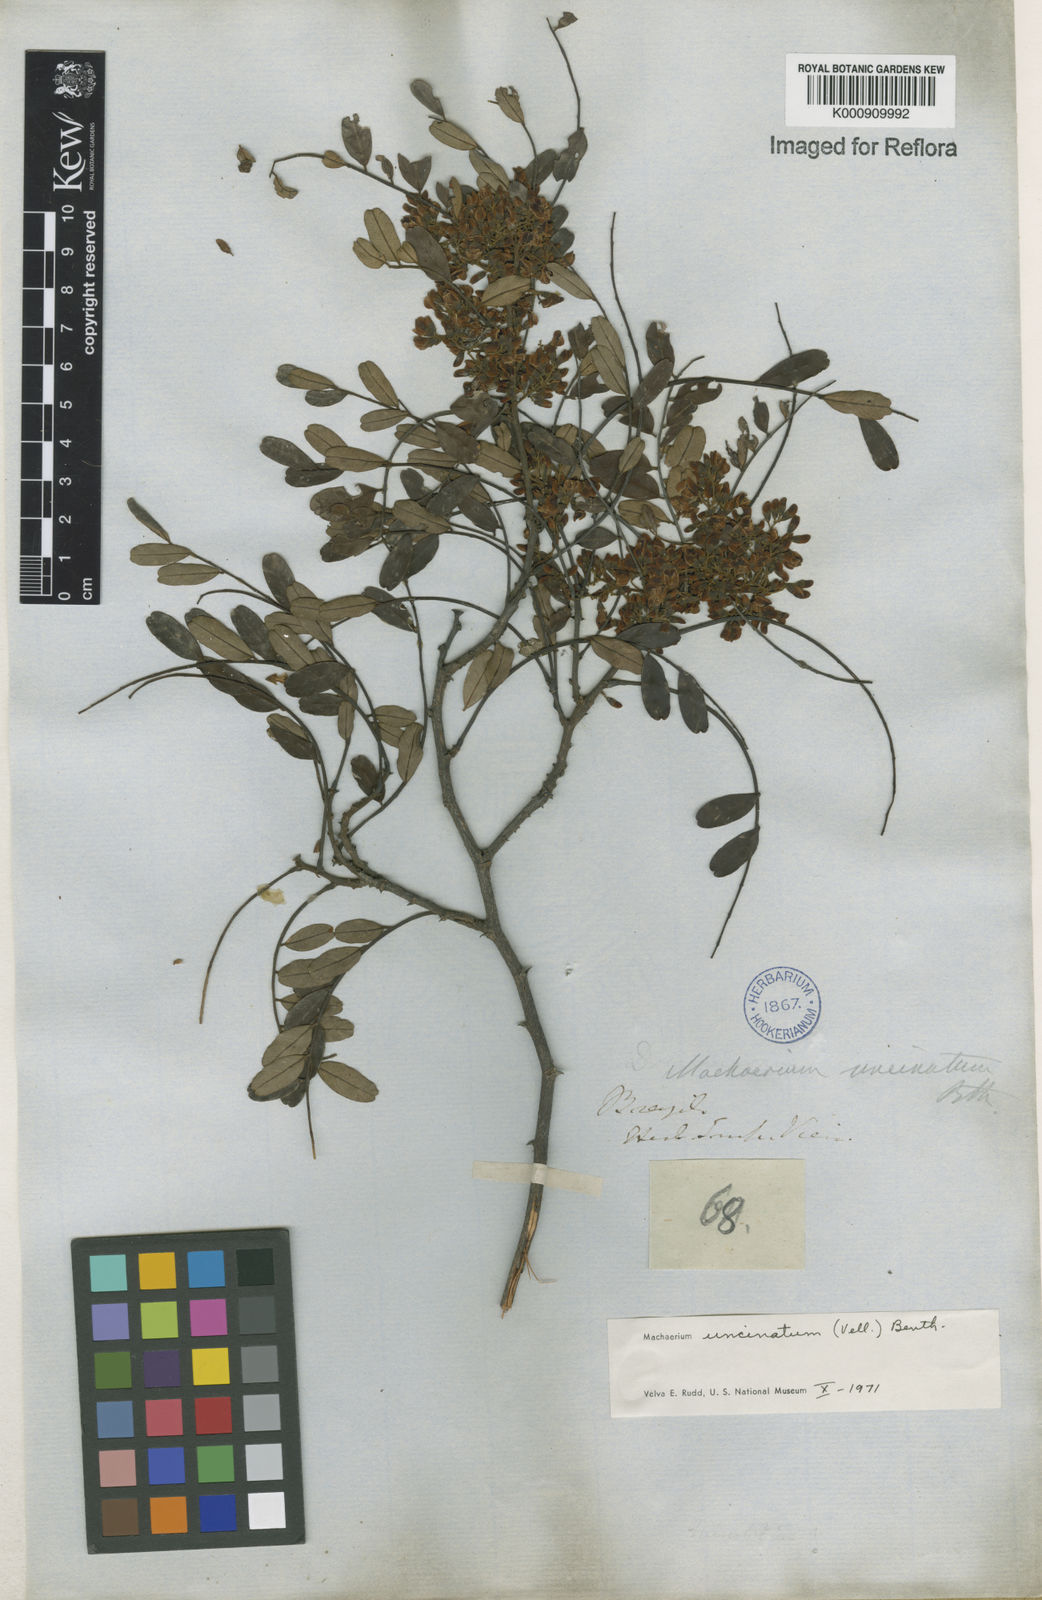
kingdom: Plantae
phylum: Tracheophyta
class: Magnoliopsida
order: Fabales
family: Fabaceae
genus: Machaerium
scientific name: Machaerium uncinatum
